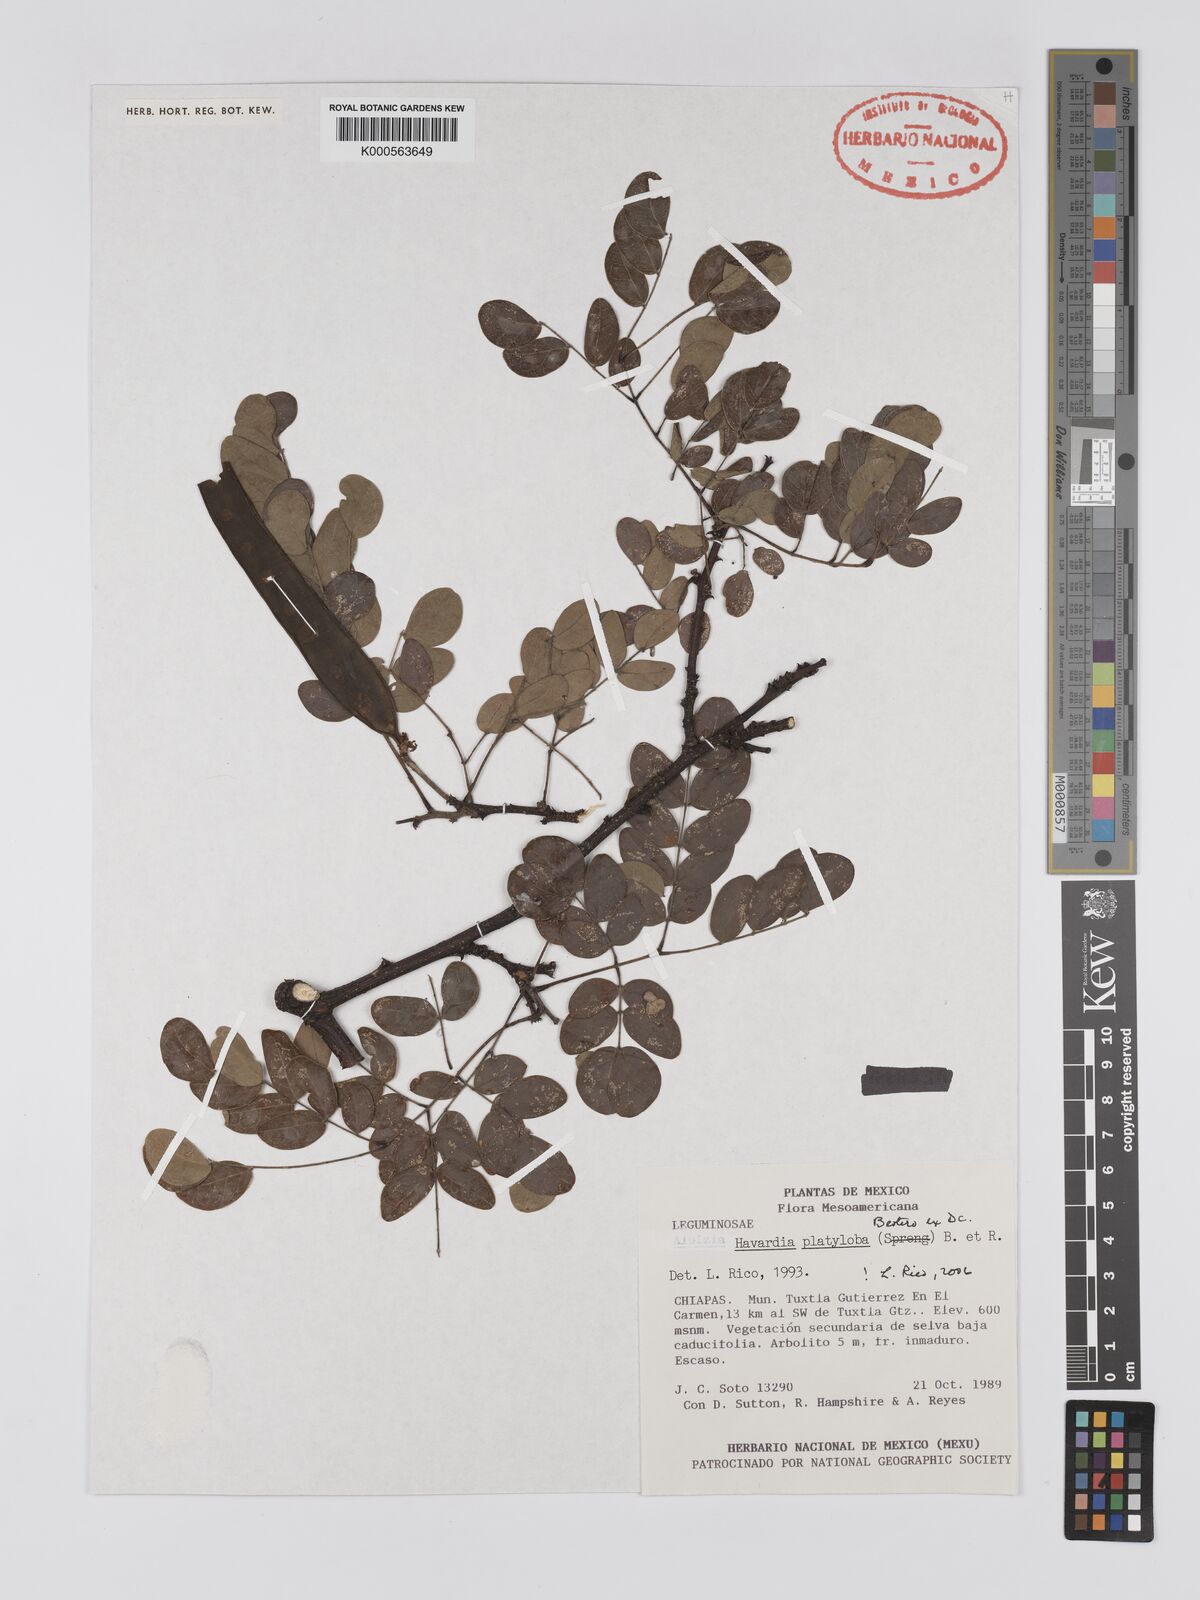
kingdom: Plantae
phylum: Tracheophyta
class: Magnoliopsida
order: Fabales
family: Fabaceae
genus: Havardia
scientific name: Havardia platyloba
